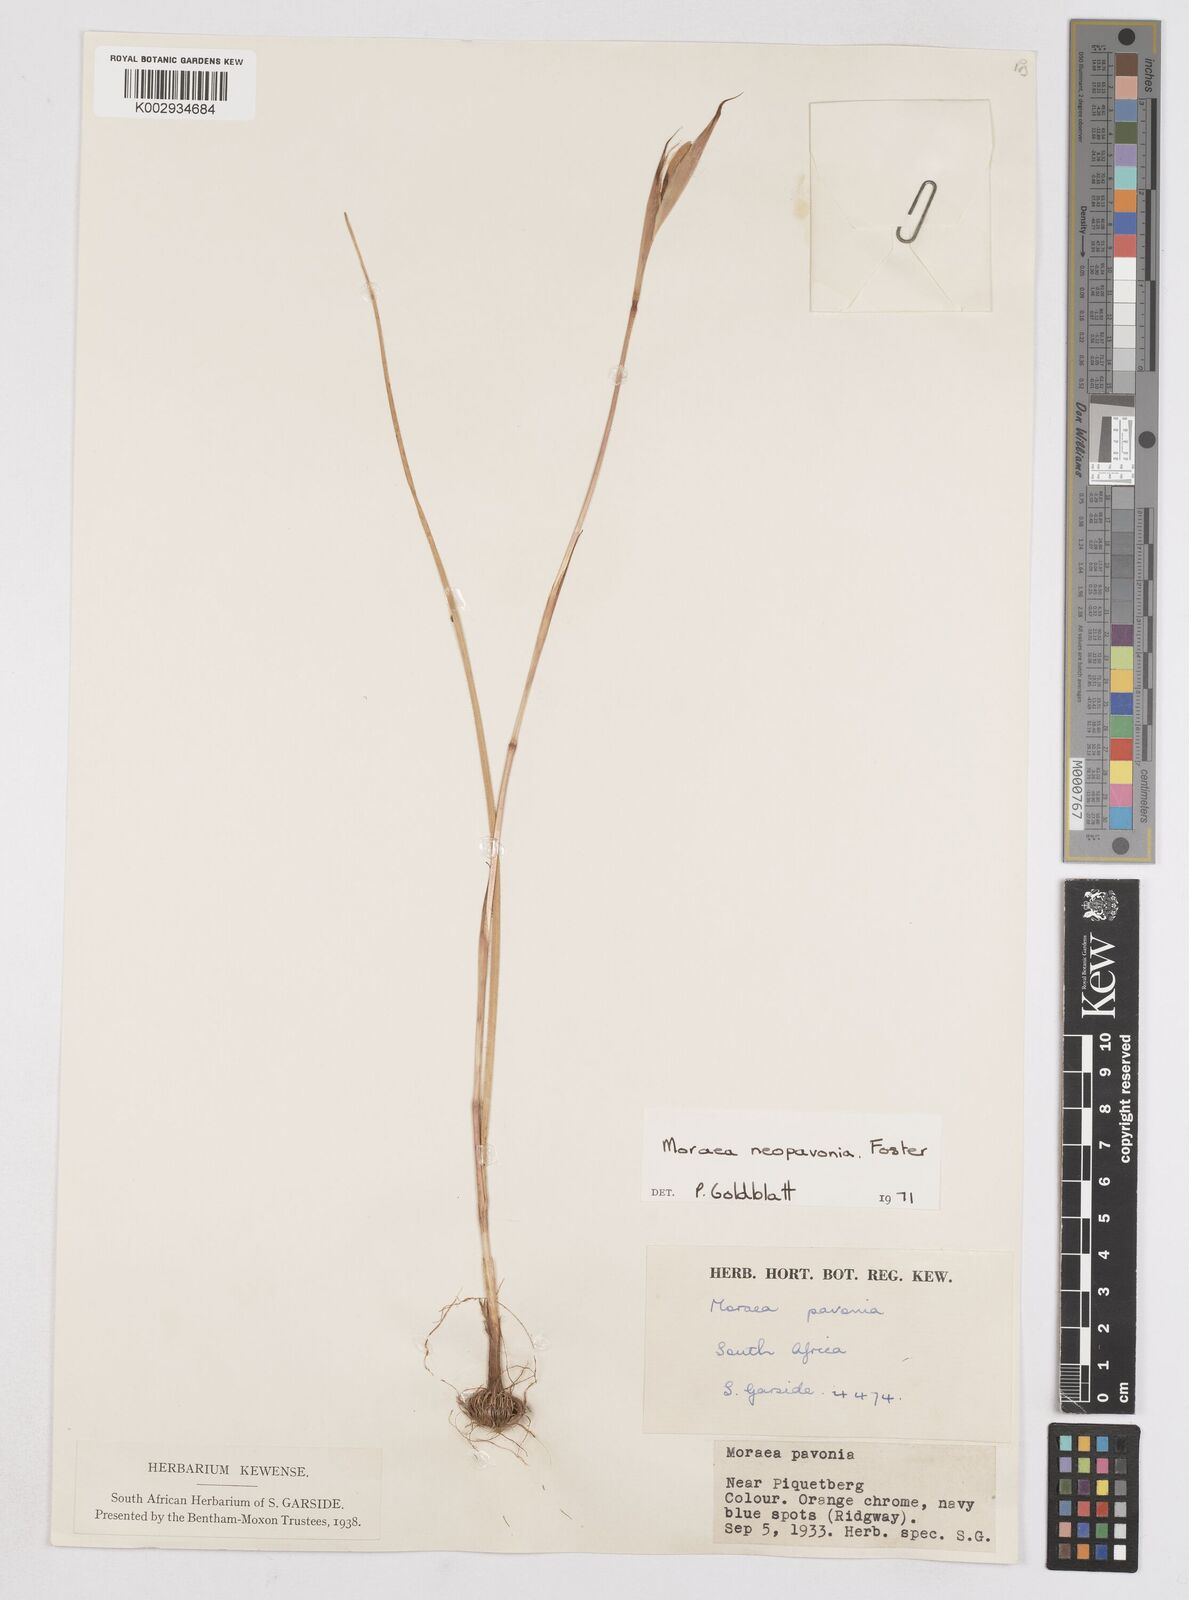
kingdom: Plantae
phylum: Tracheophyta
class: Liliopsida
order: Asparagales
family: Iridaceae
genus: Moraea
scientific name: Moraea tulbaghensis
